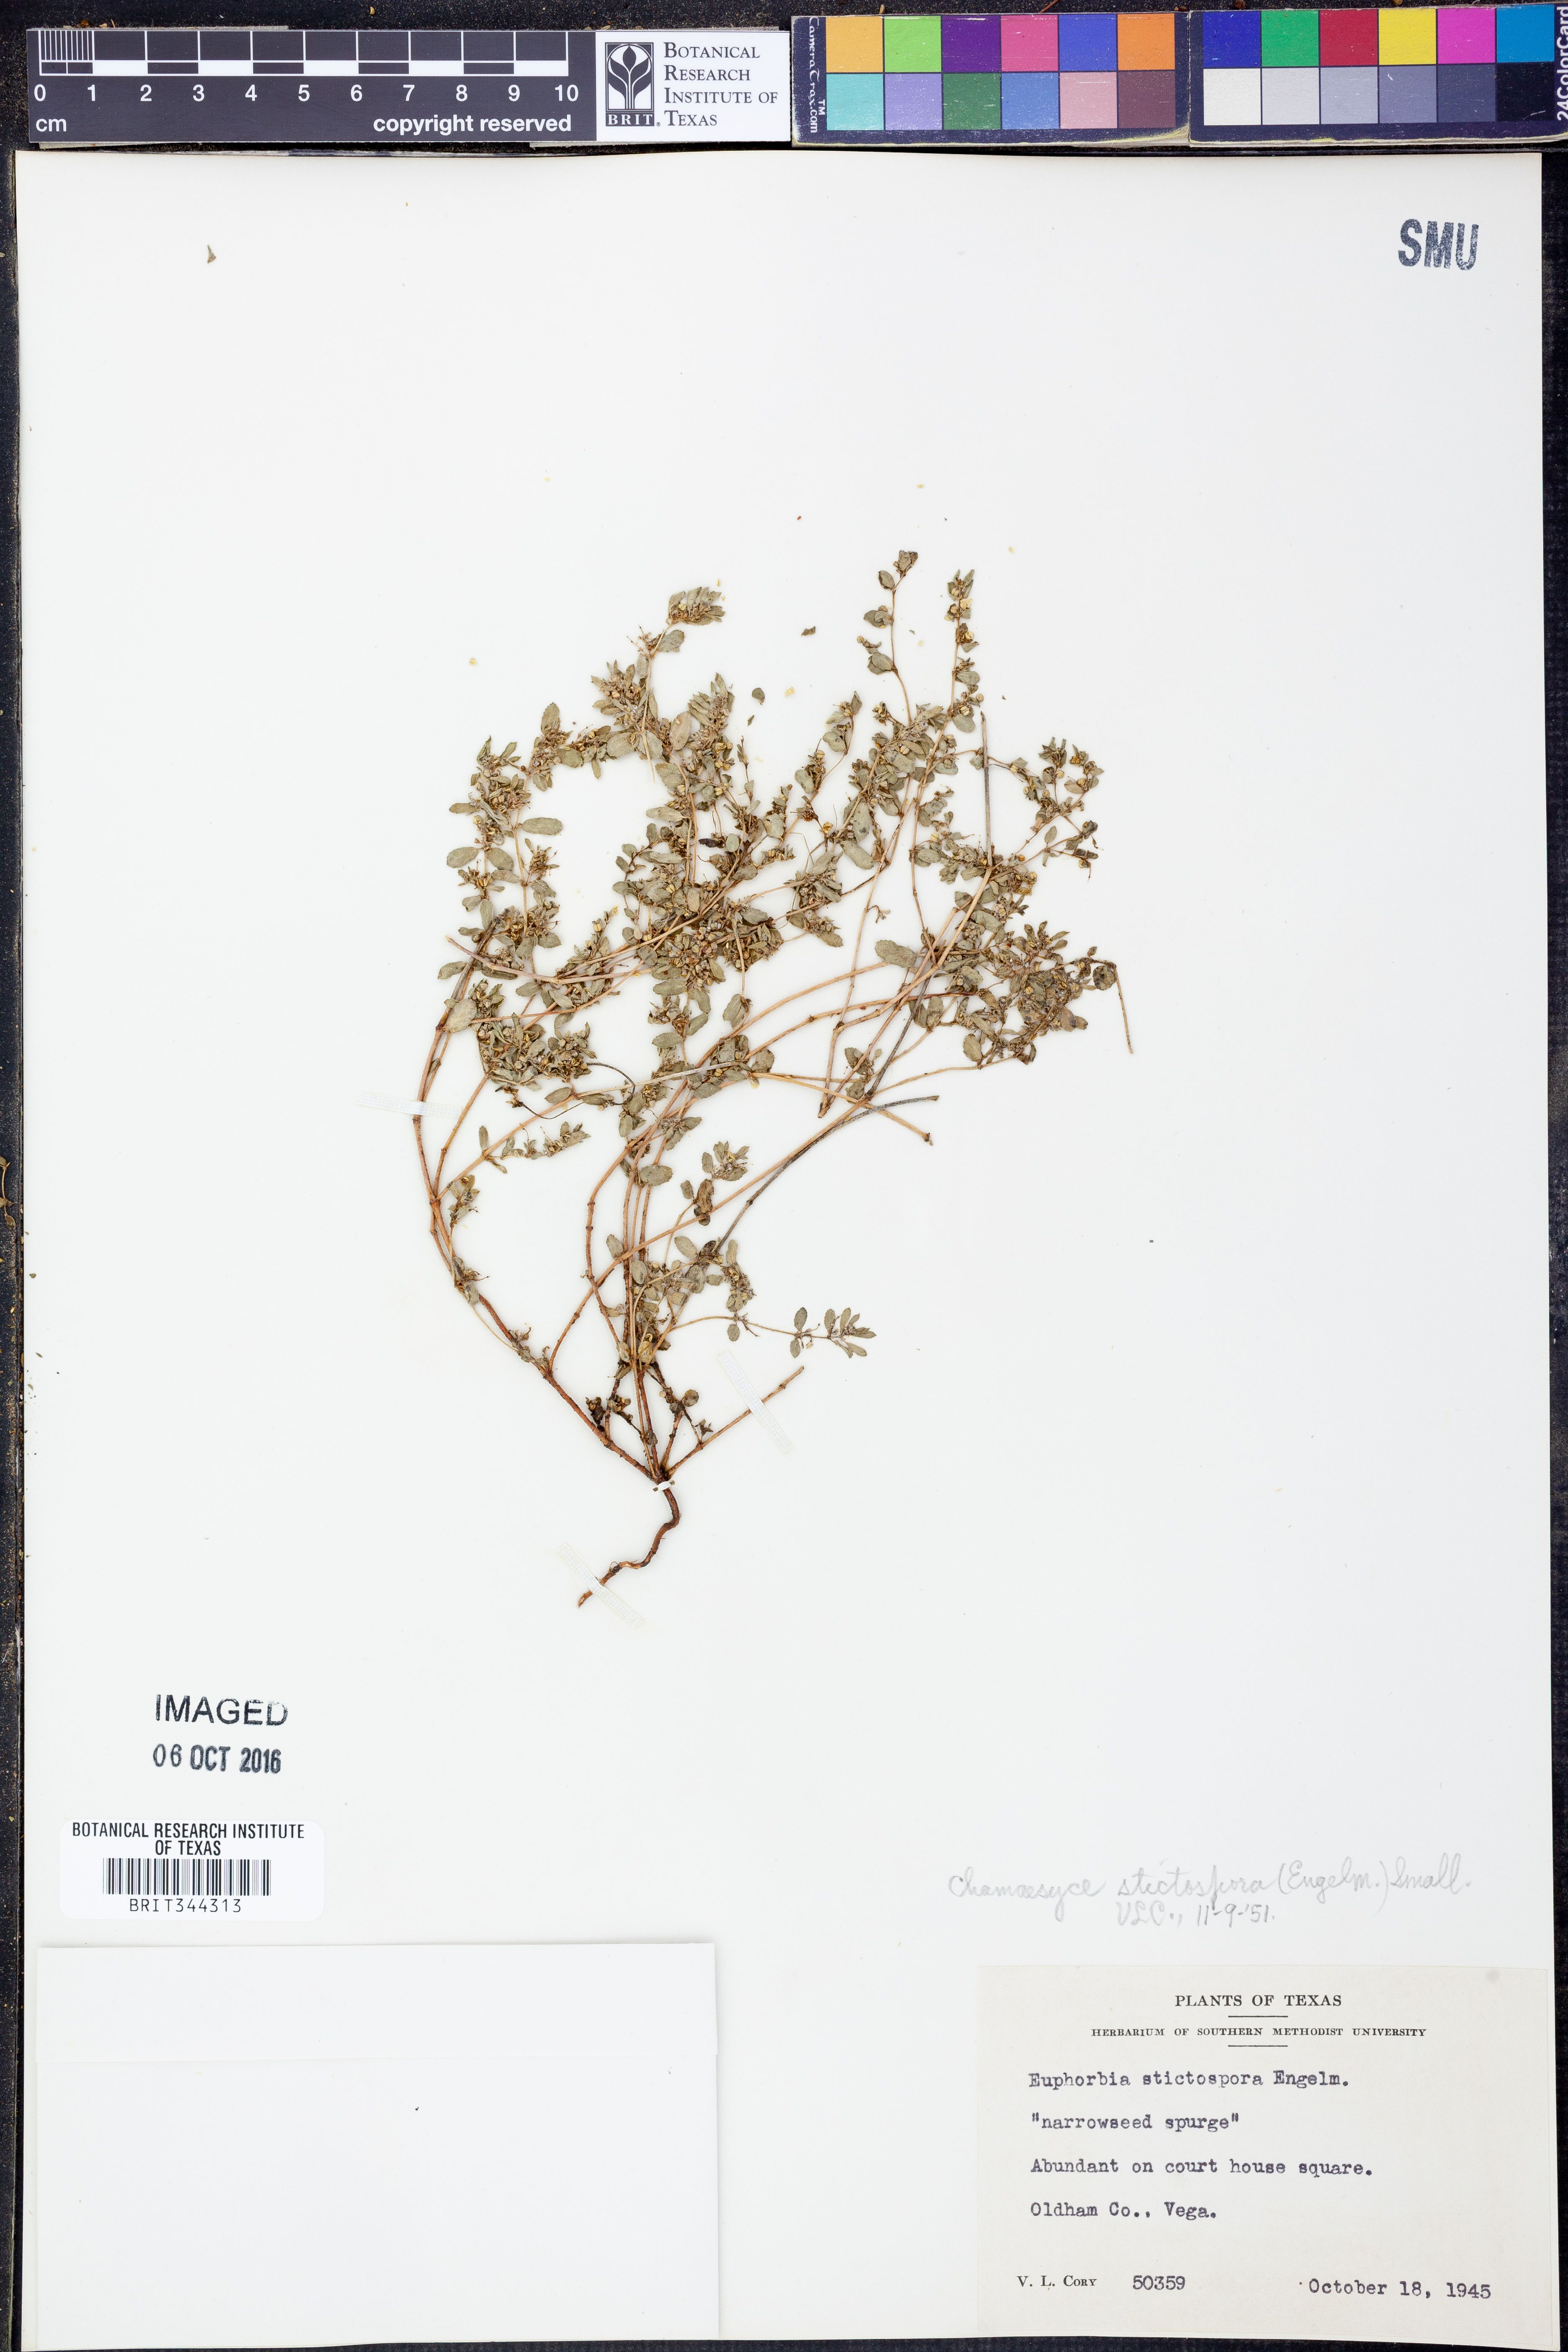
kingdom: Plantae
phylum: Tracheophyta
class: Magnoliopsida
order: Malpighiales
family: Euphorbiaceae
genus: Euphorbia
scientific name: Euphorbia stictospora
